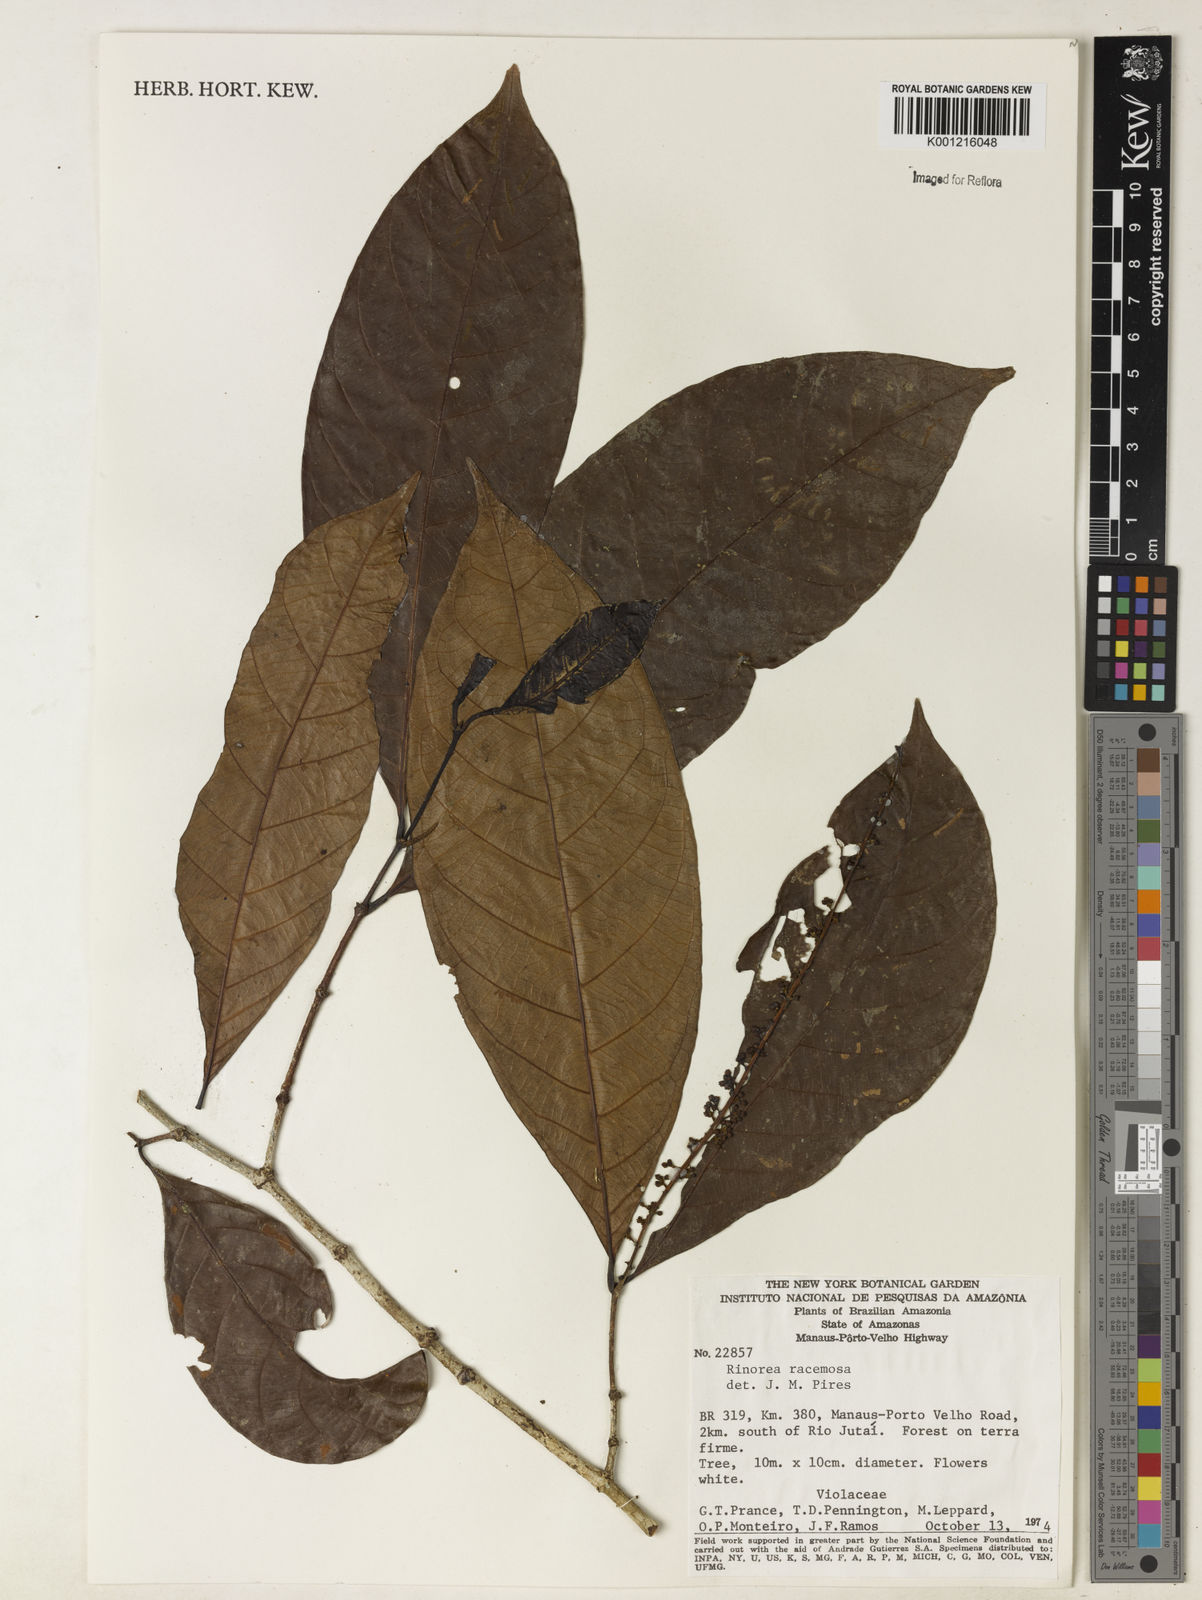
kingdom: Plantae
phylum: Tracheophyta
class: Magnoliopsida
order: Malpighiales
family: Violaceae
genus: Rinorea
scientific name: Rinorea racemosa
